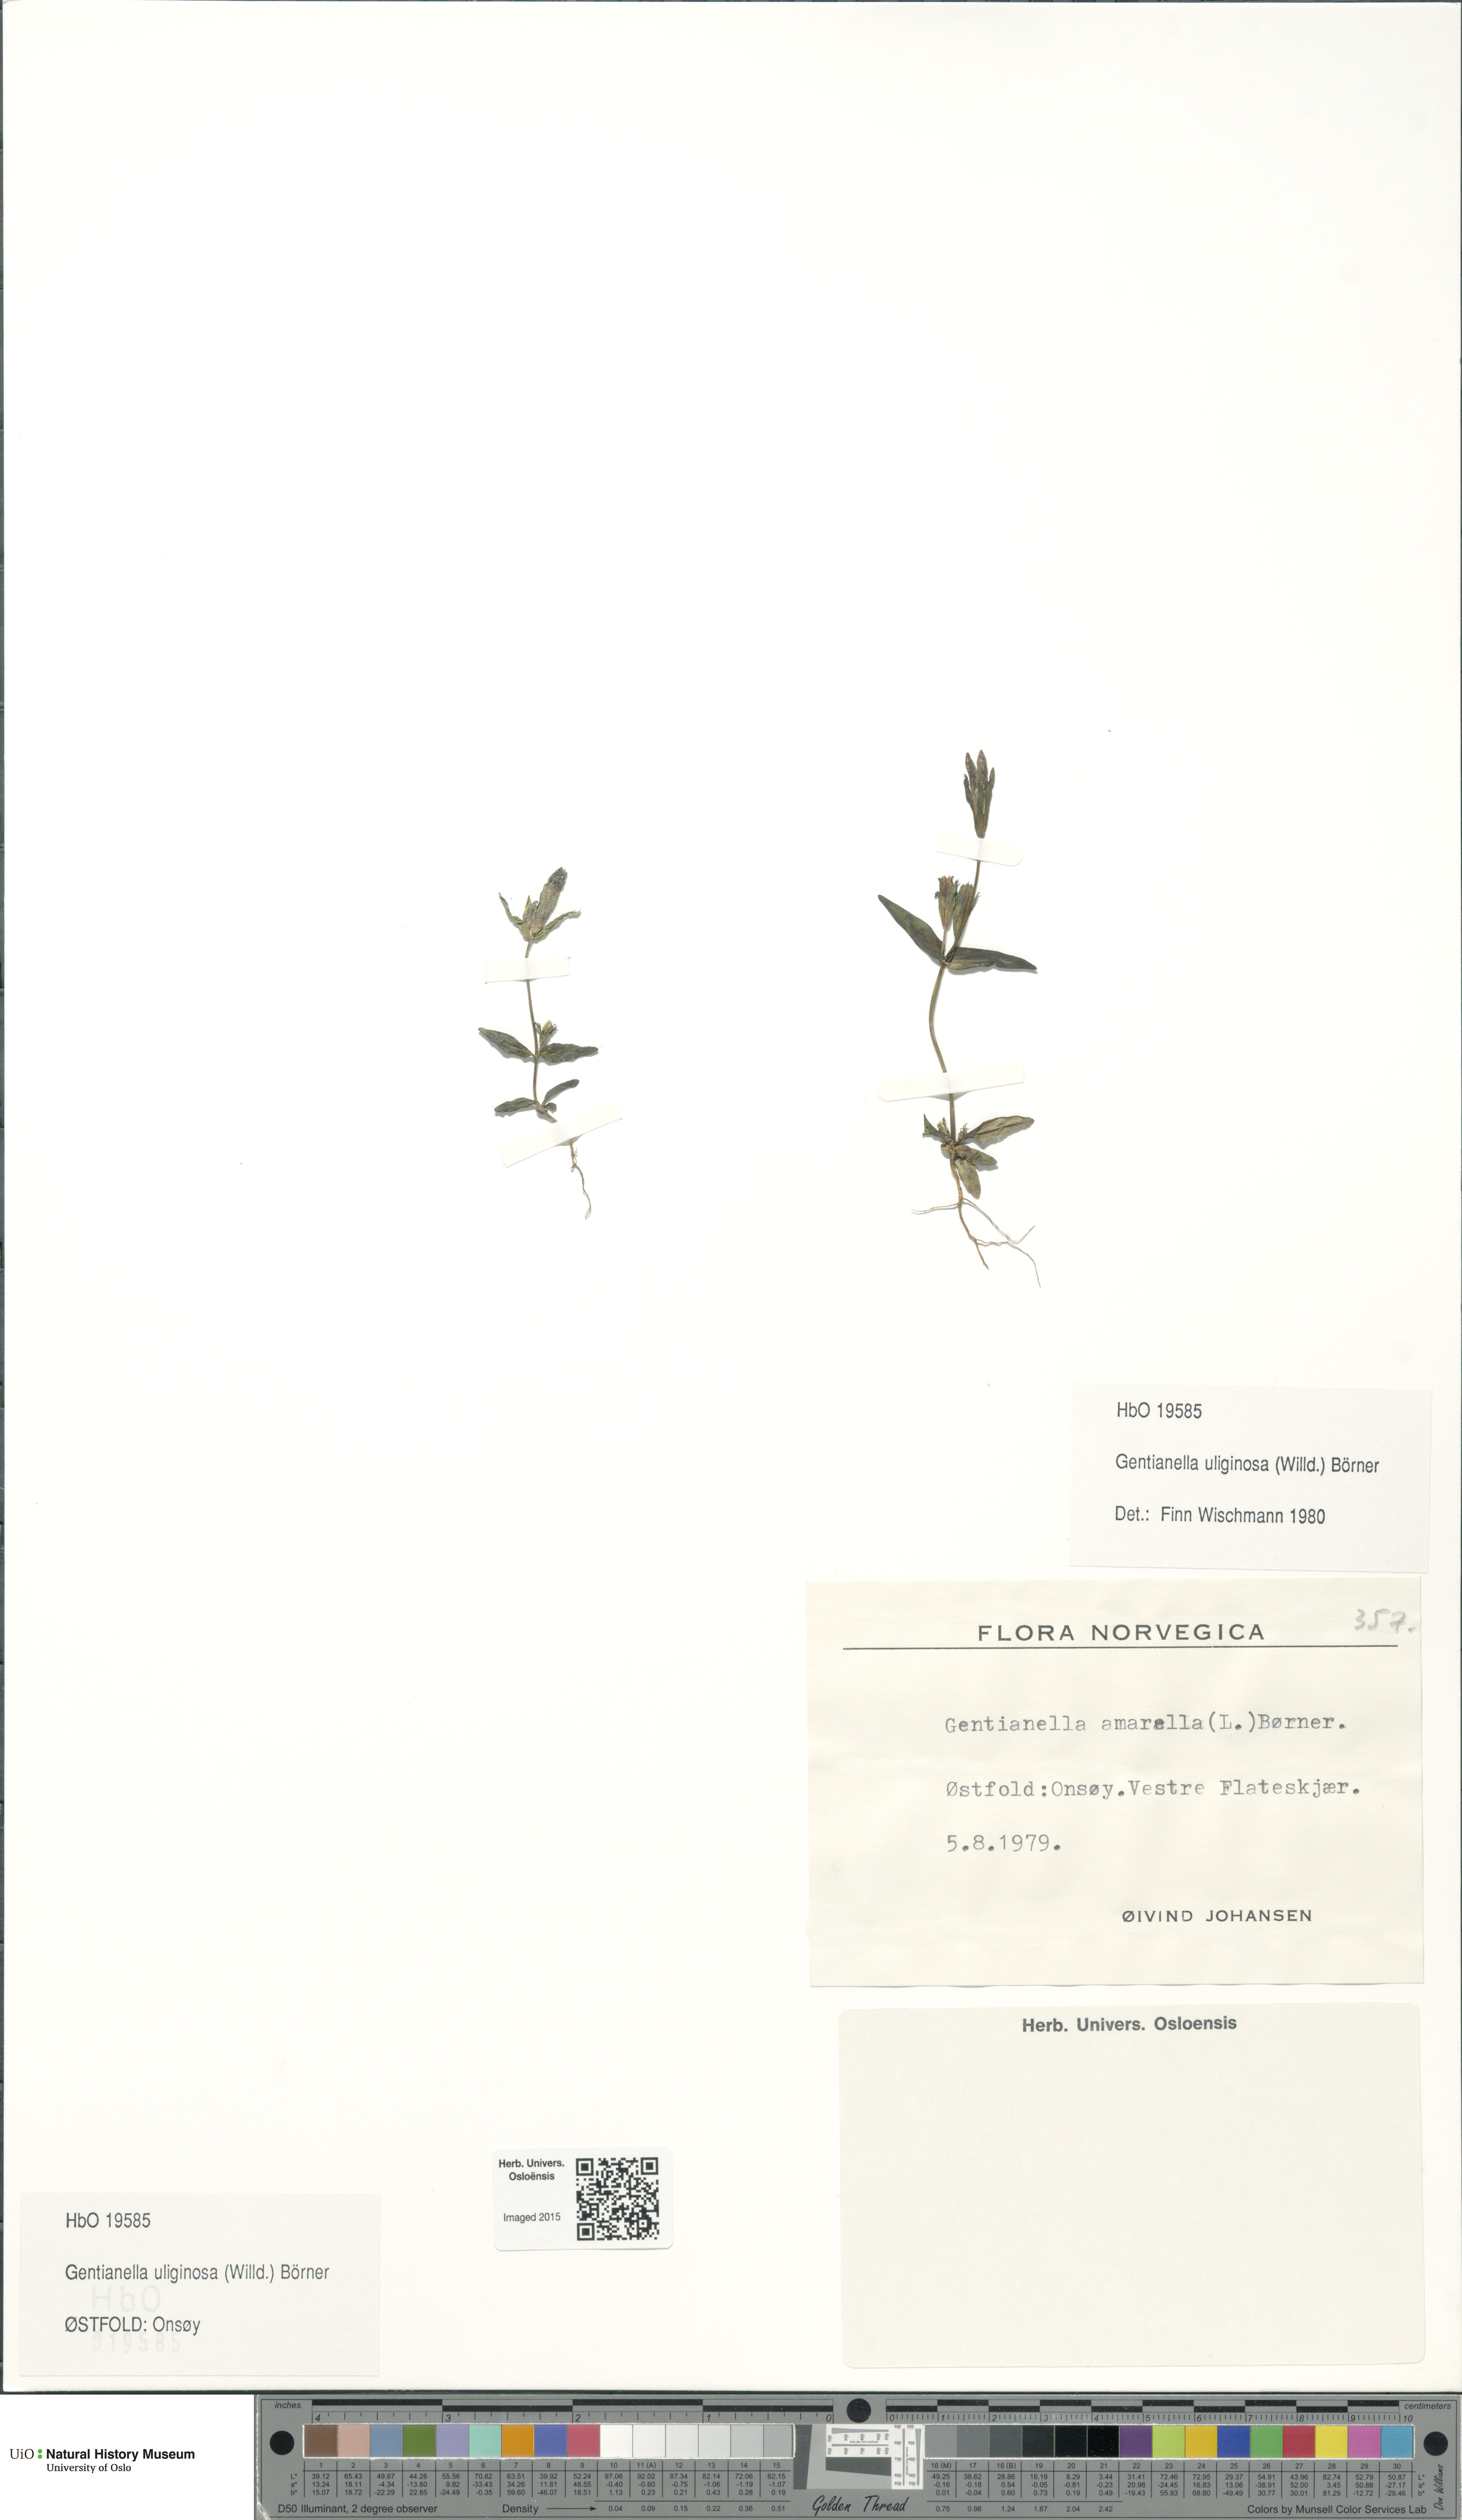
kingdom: Plantae
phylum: Tracheophyta
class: Magnoliopsida
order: Gentianales
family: Gentianaceae
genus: Gentianella
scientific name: Gentianella uliginosa
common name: Dune gentian
